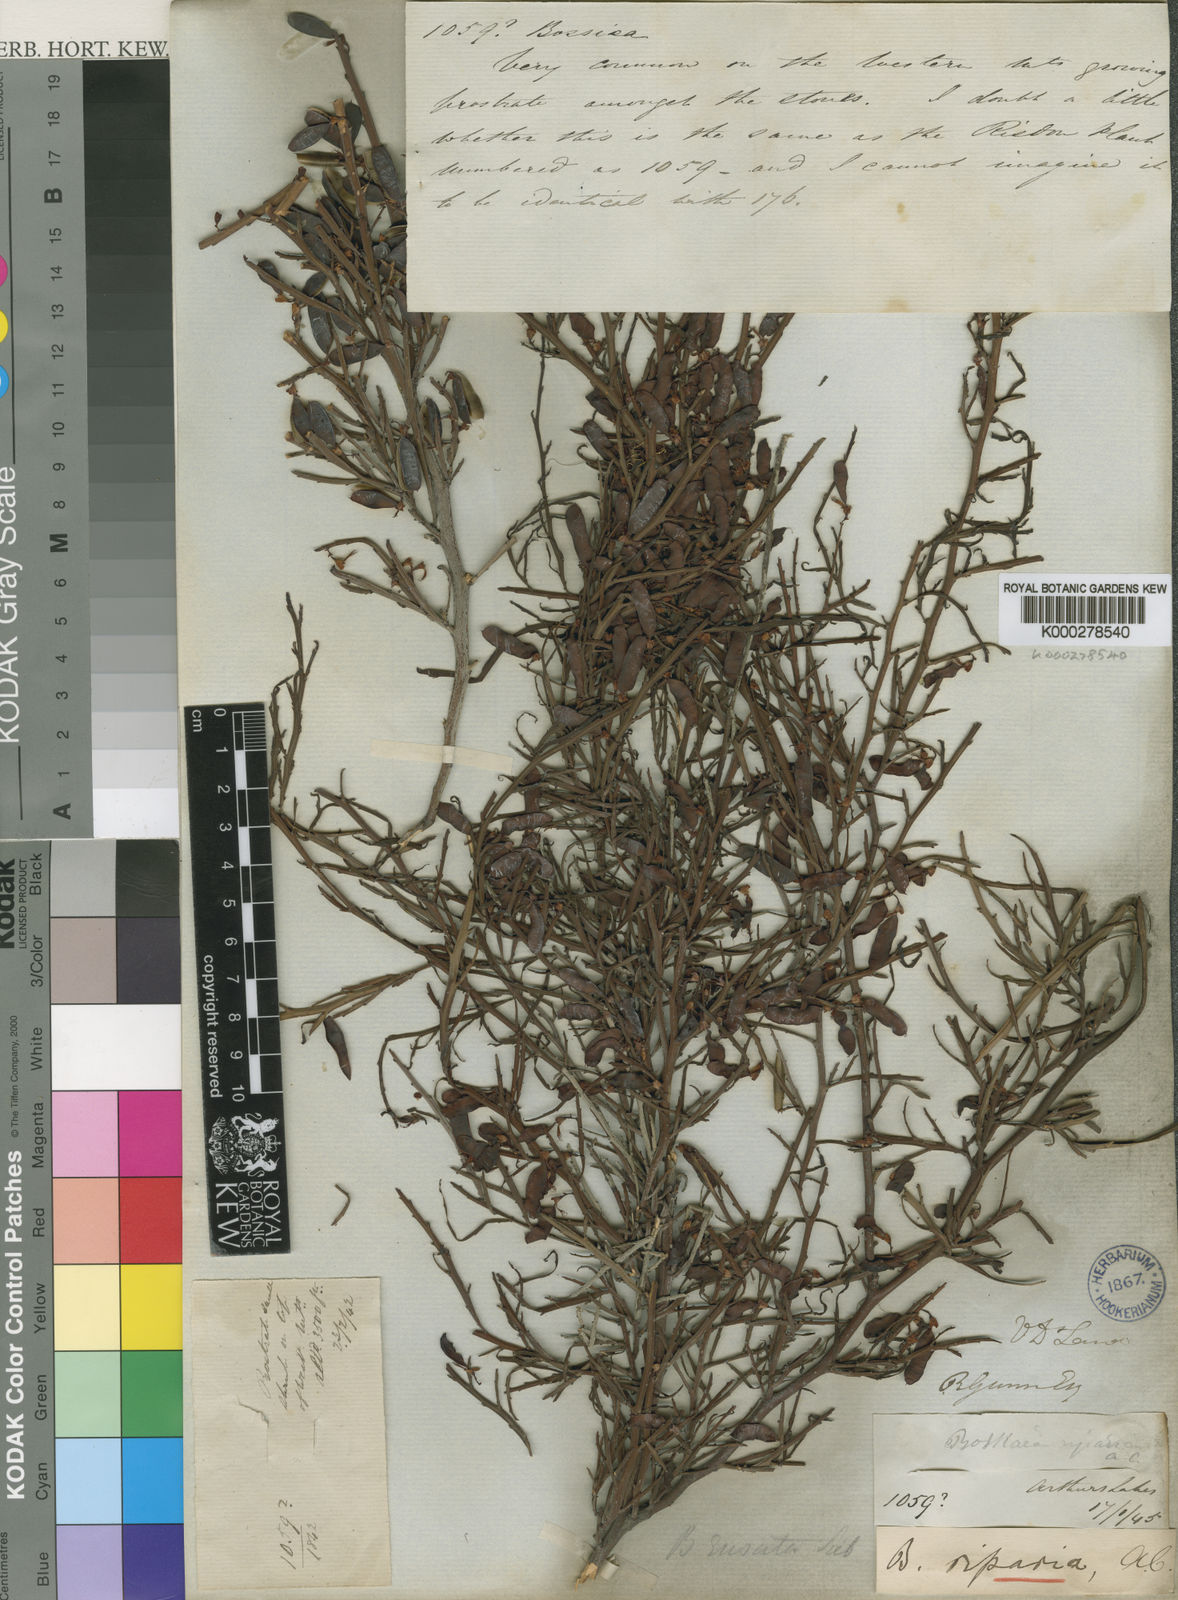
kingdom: Plantae
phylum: Tracheophyta
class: Magnoliopsida
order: Fabales
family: Fabaceae
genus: Bossiaea
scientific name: Bossiaea riparia
